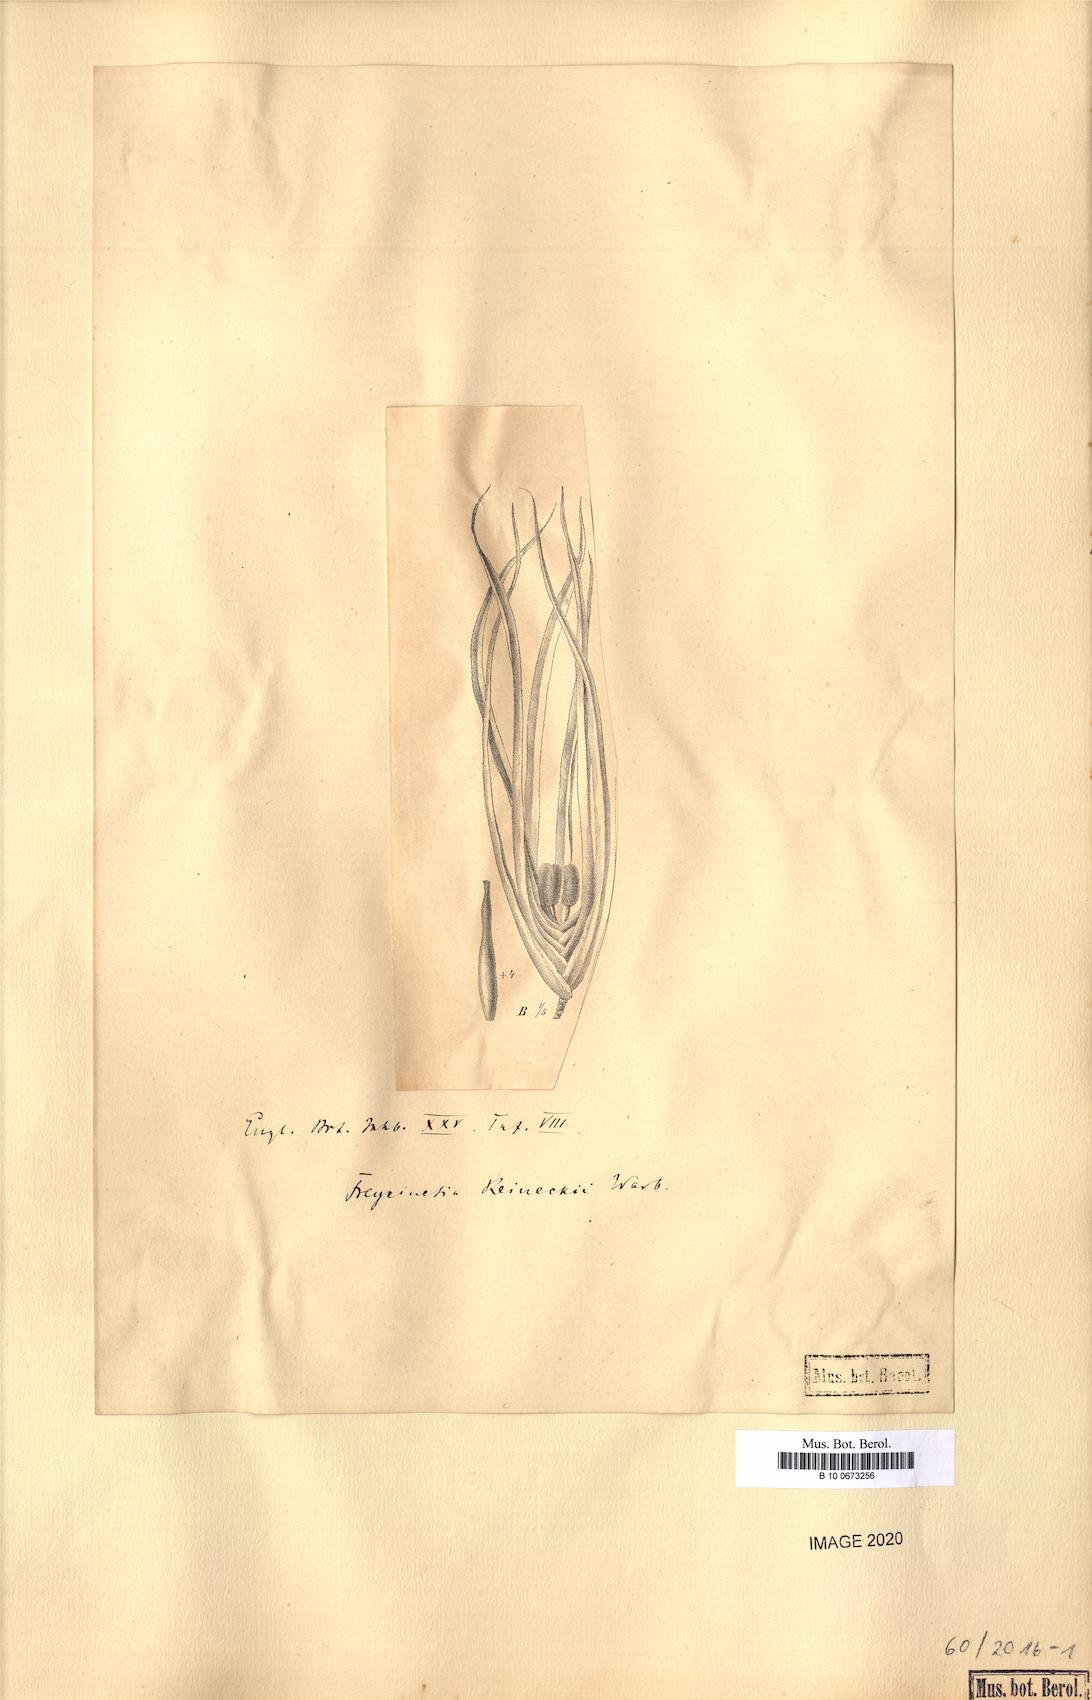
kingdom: Plantae
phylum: Tracheophyta
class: Liliopsida
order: Pandanales
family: Pandanaceae
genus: Freycinetia
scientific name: Freycinetia reineckei
